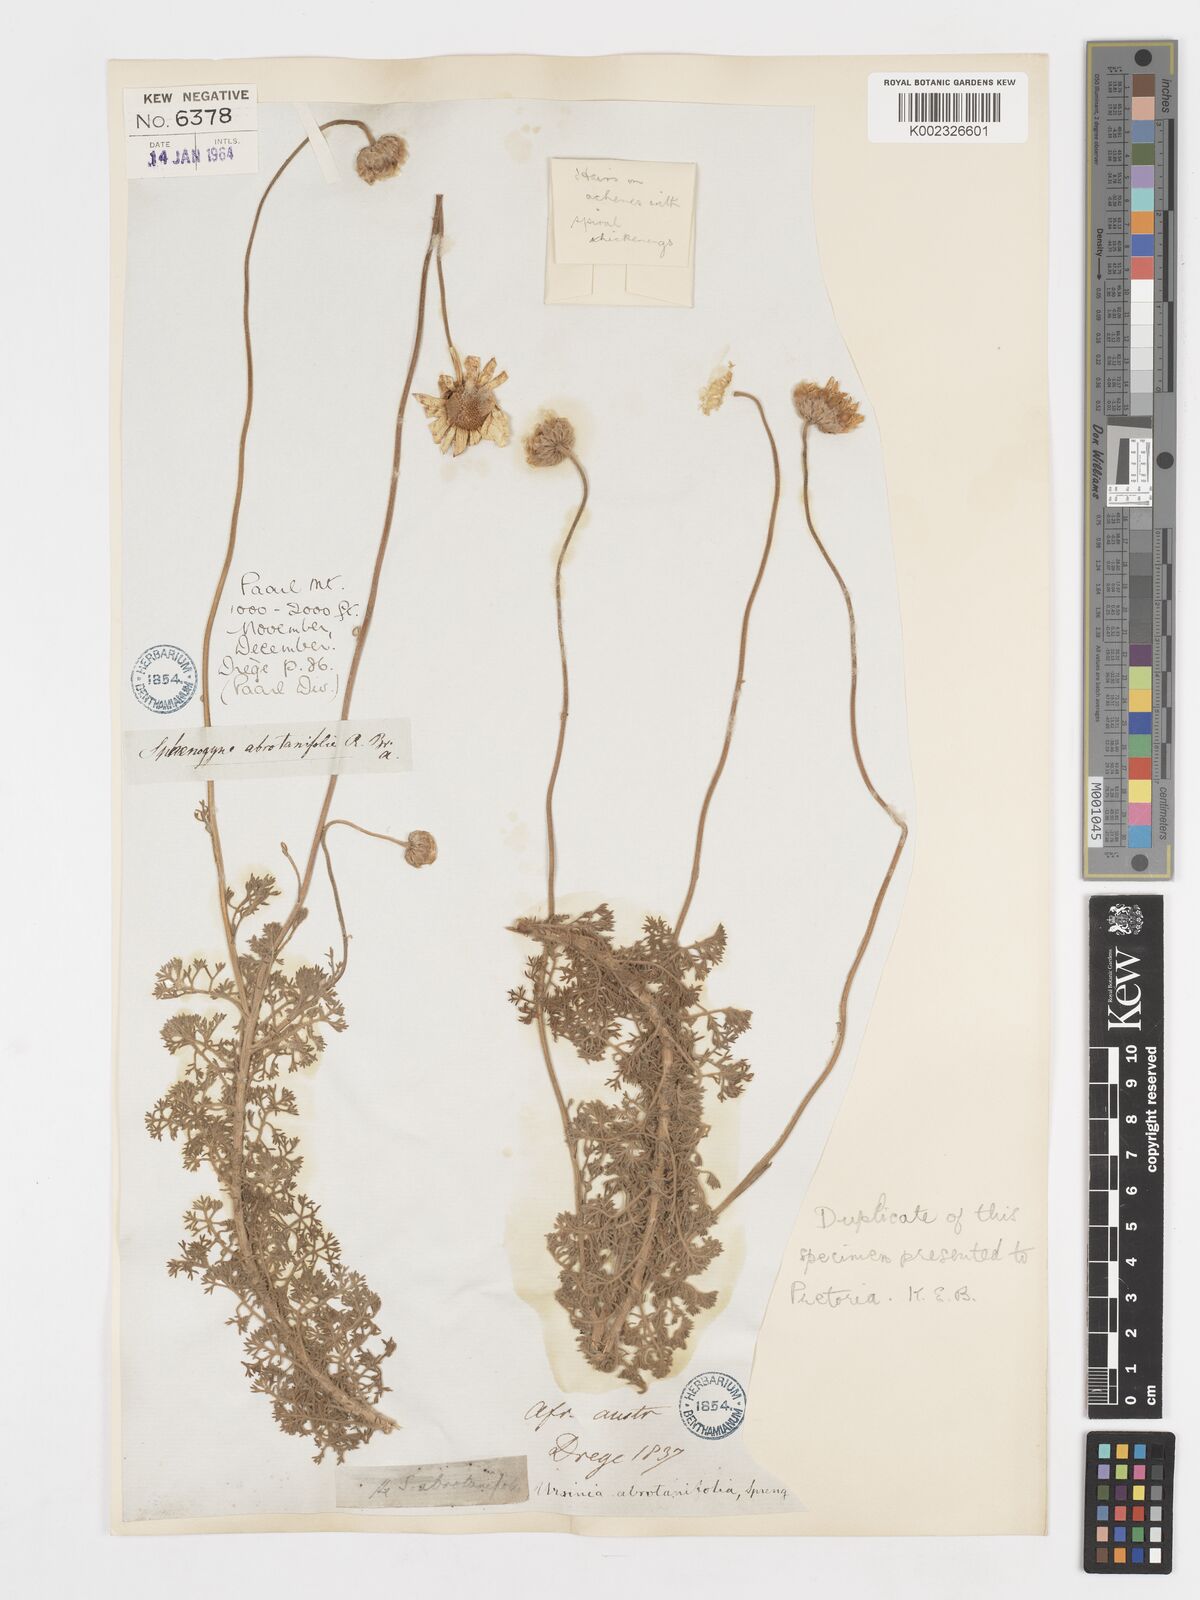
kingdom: Plantae
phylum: Tracheophyta
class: Magnoliopsida
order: Asterales
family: Asteraceae
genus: Ursinia
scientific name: Ursinia abrotanifolia
